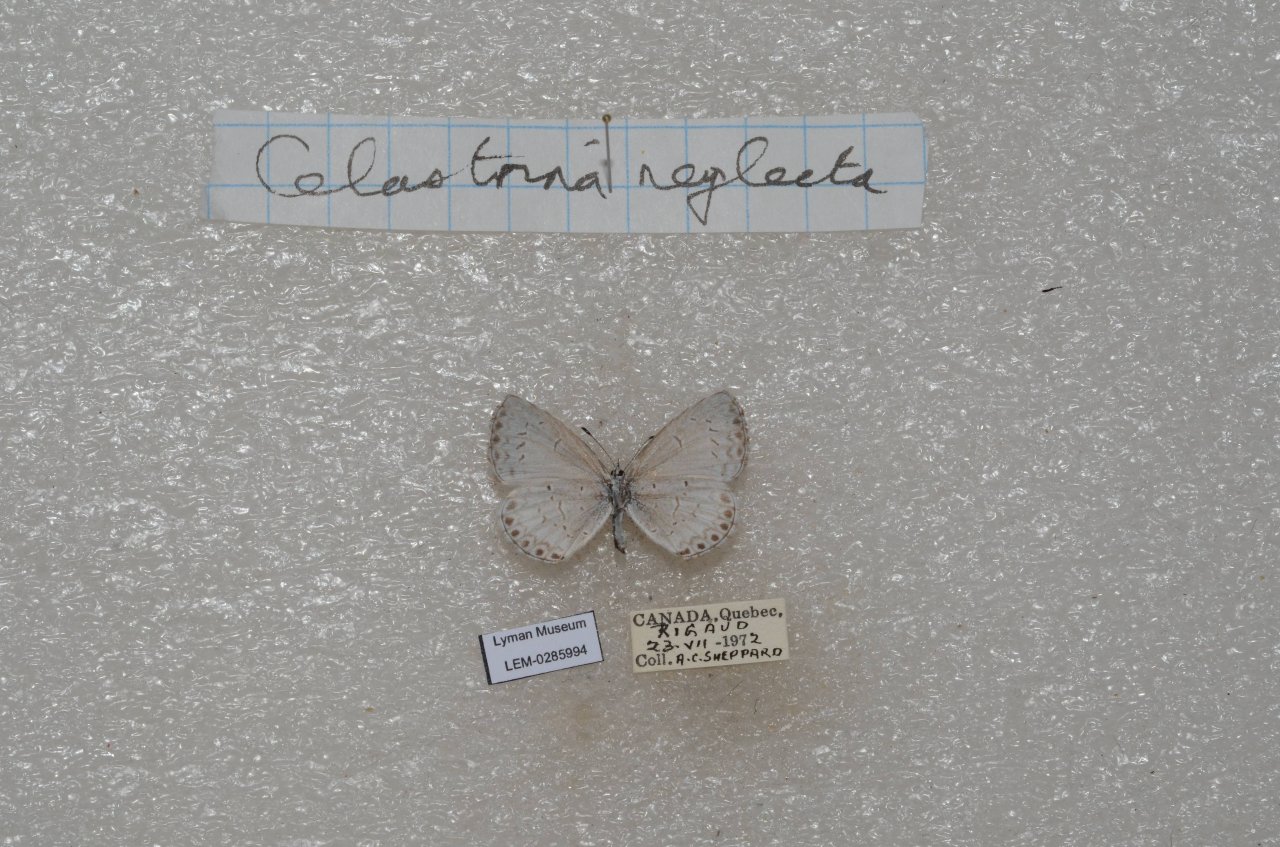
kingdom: Animalia
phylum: Arthropoda
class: Insecta
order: Lepidoptera
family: Lycaenidae
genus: Celastrina
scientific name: Celastrina lucia
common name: Northern Spring Azure
